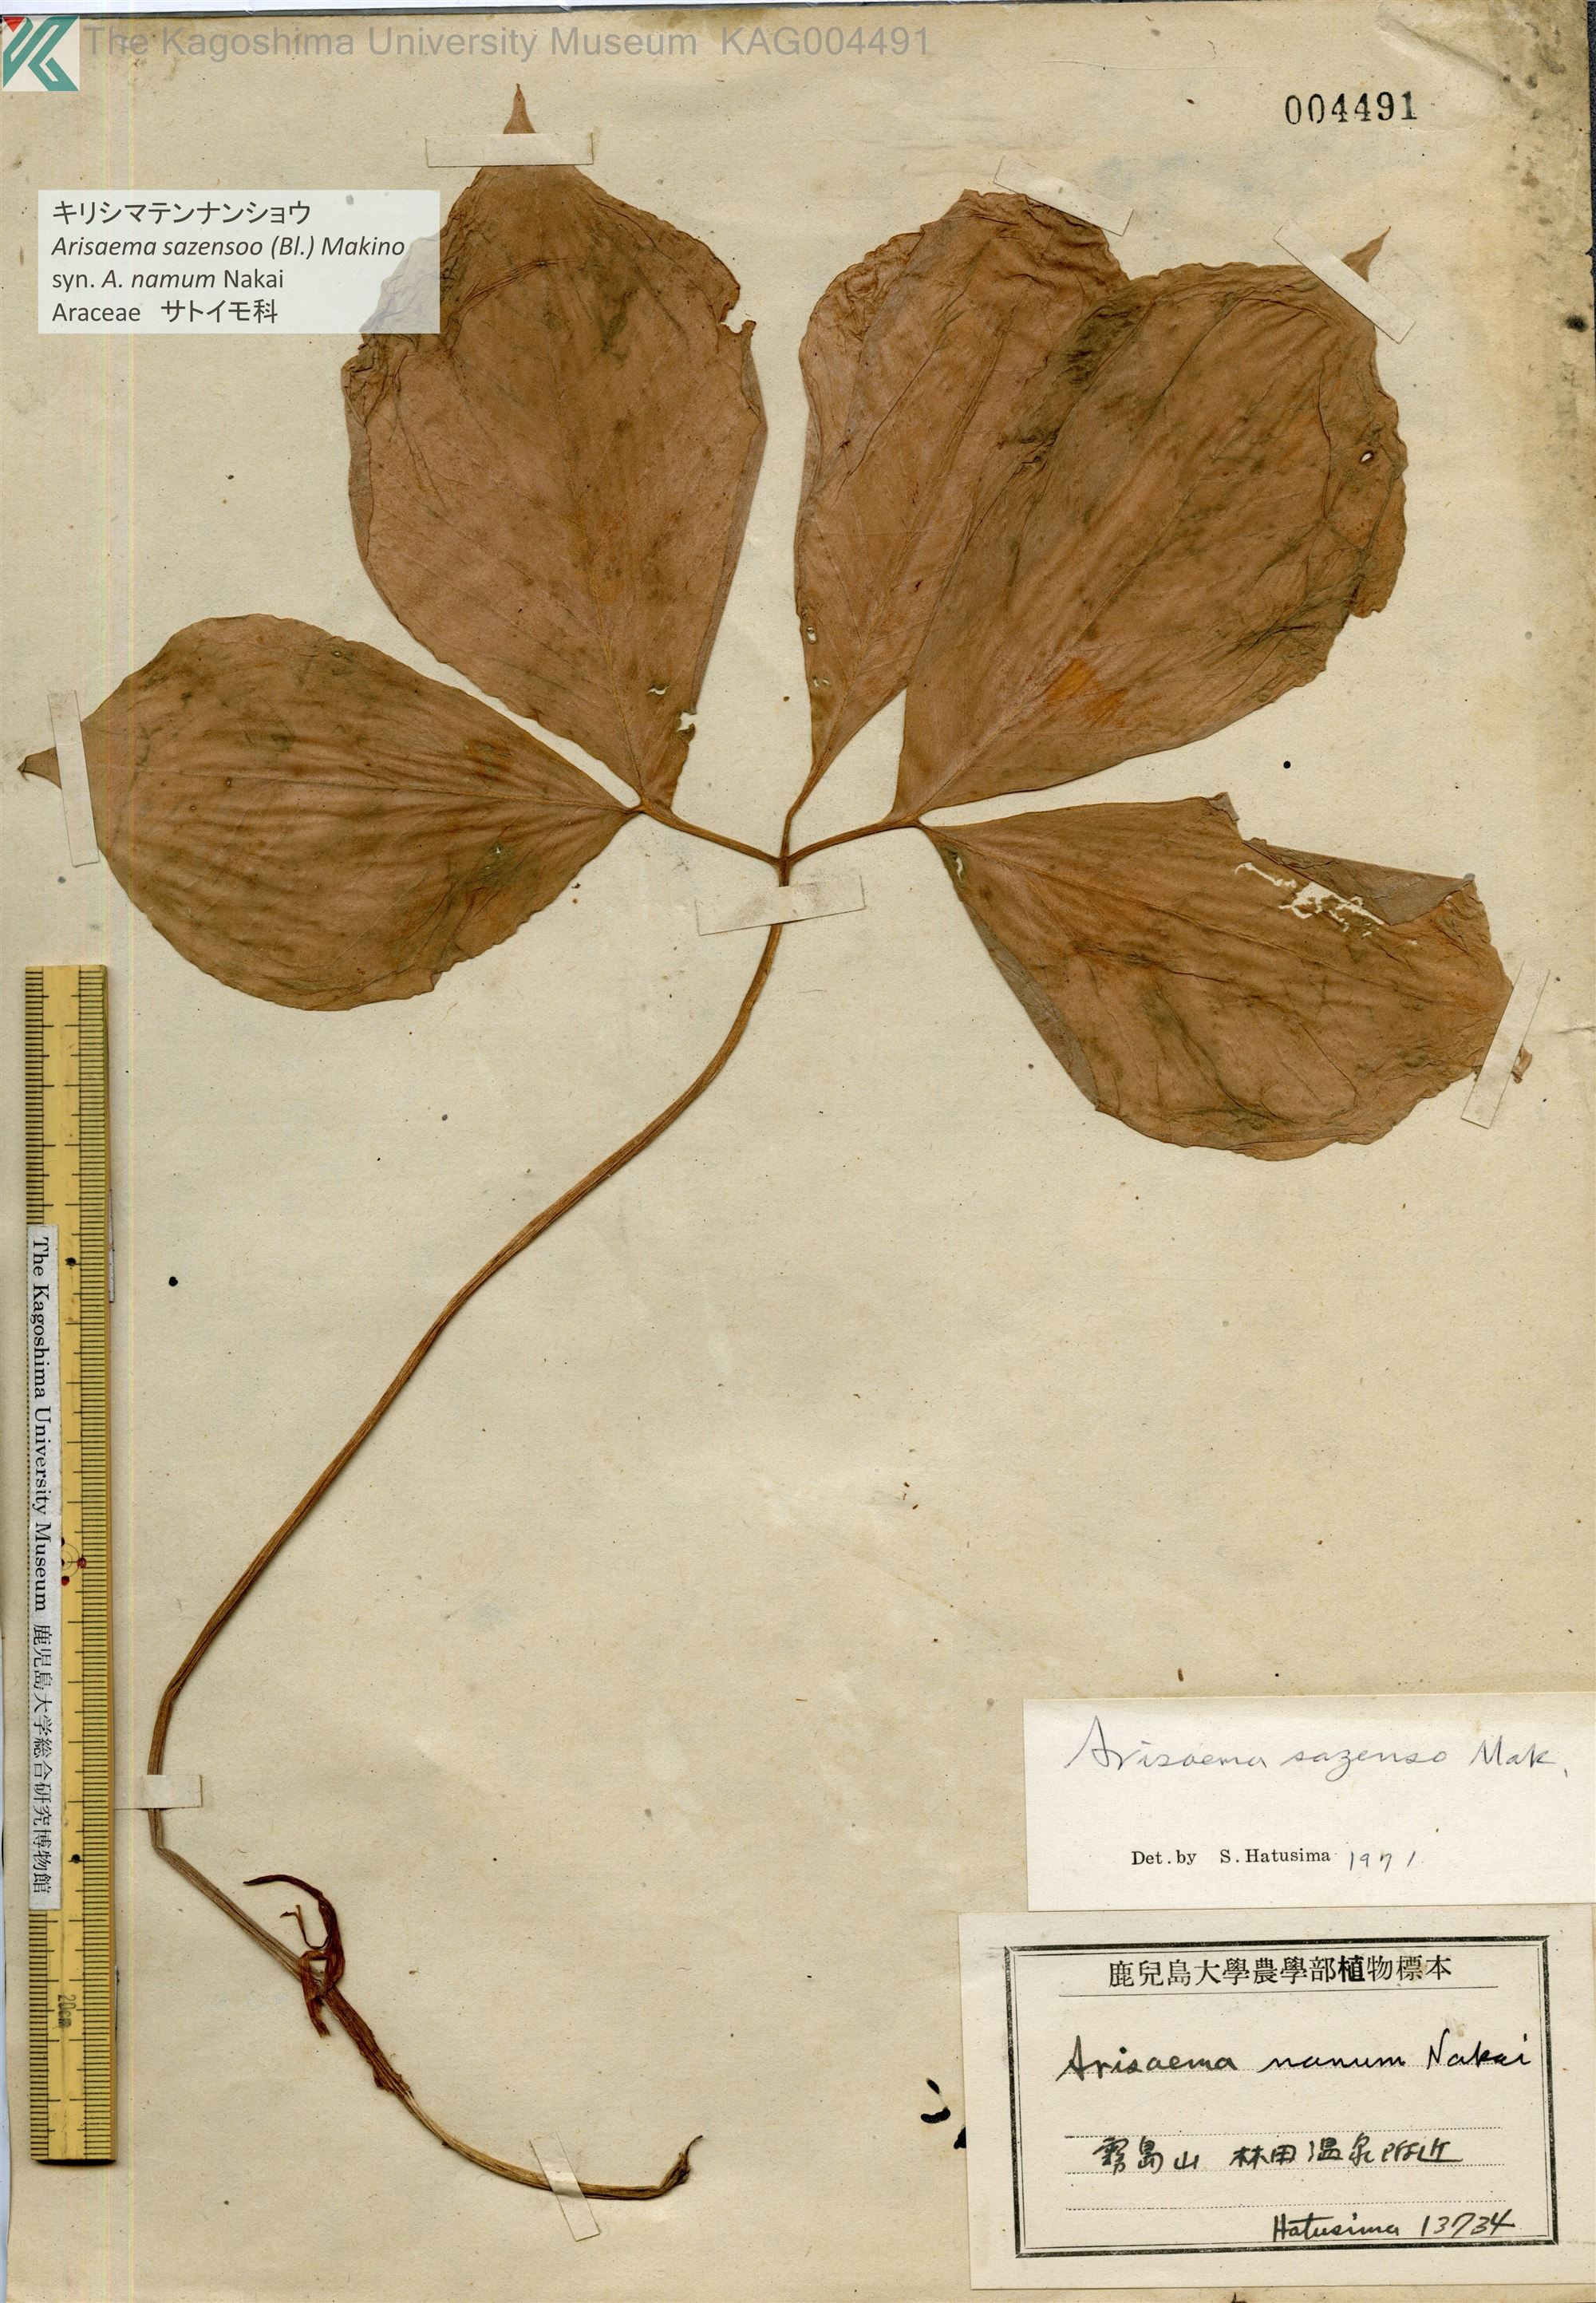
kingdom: Plantae
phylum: Tracheophyta
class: Liliopsida
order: Alismatales
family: Araceae
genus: Arisaema
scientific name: Arisaema sazensoo
